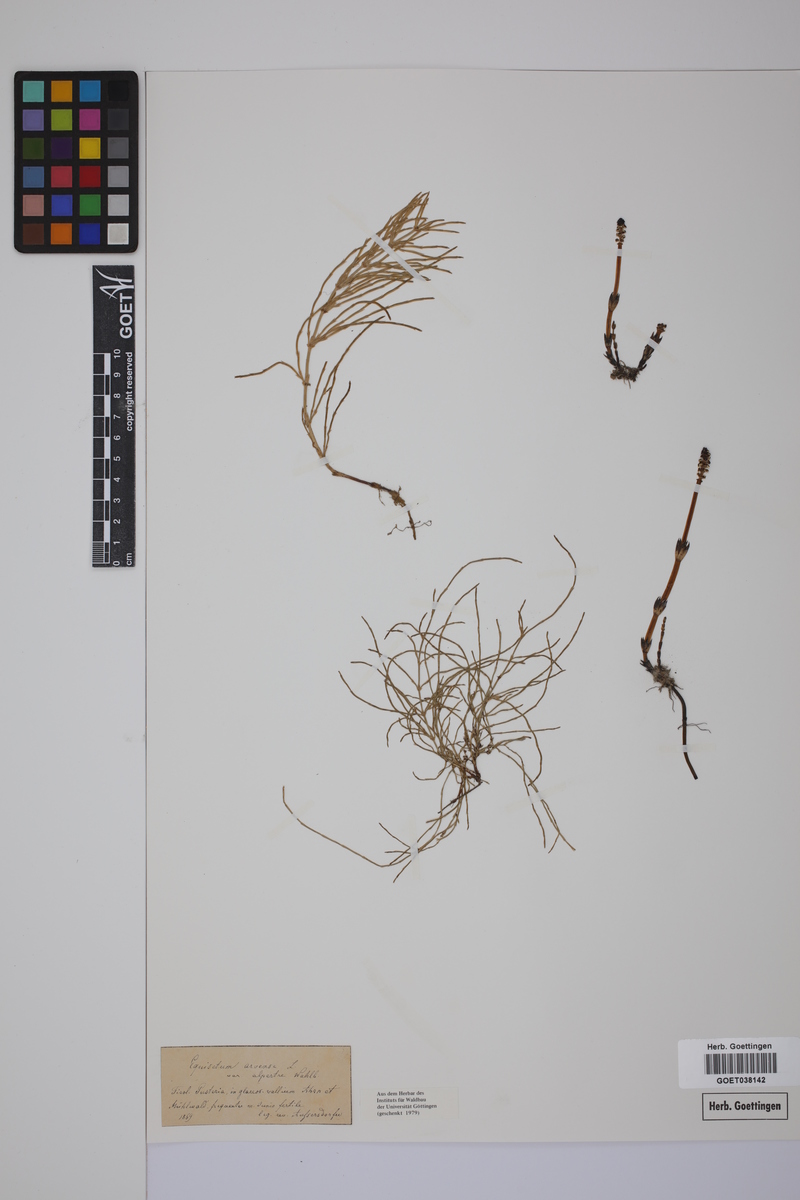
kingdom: Plantae
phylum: Tracheophyta
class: Polypodiopsida
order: Equisetales
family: Equisetaceae
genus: Equisetum
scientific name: Equisetum arvense
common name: Field horsetail
